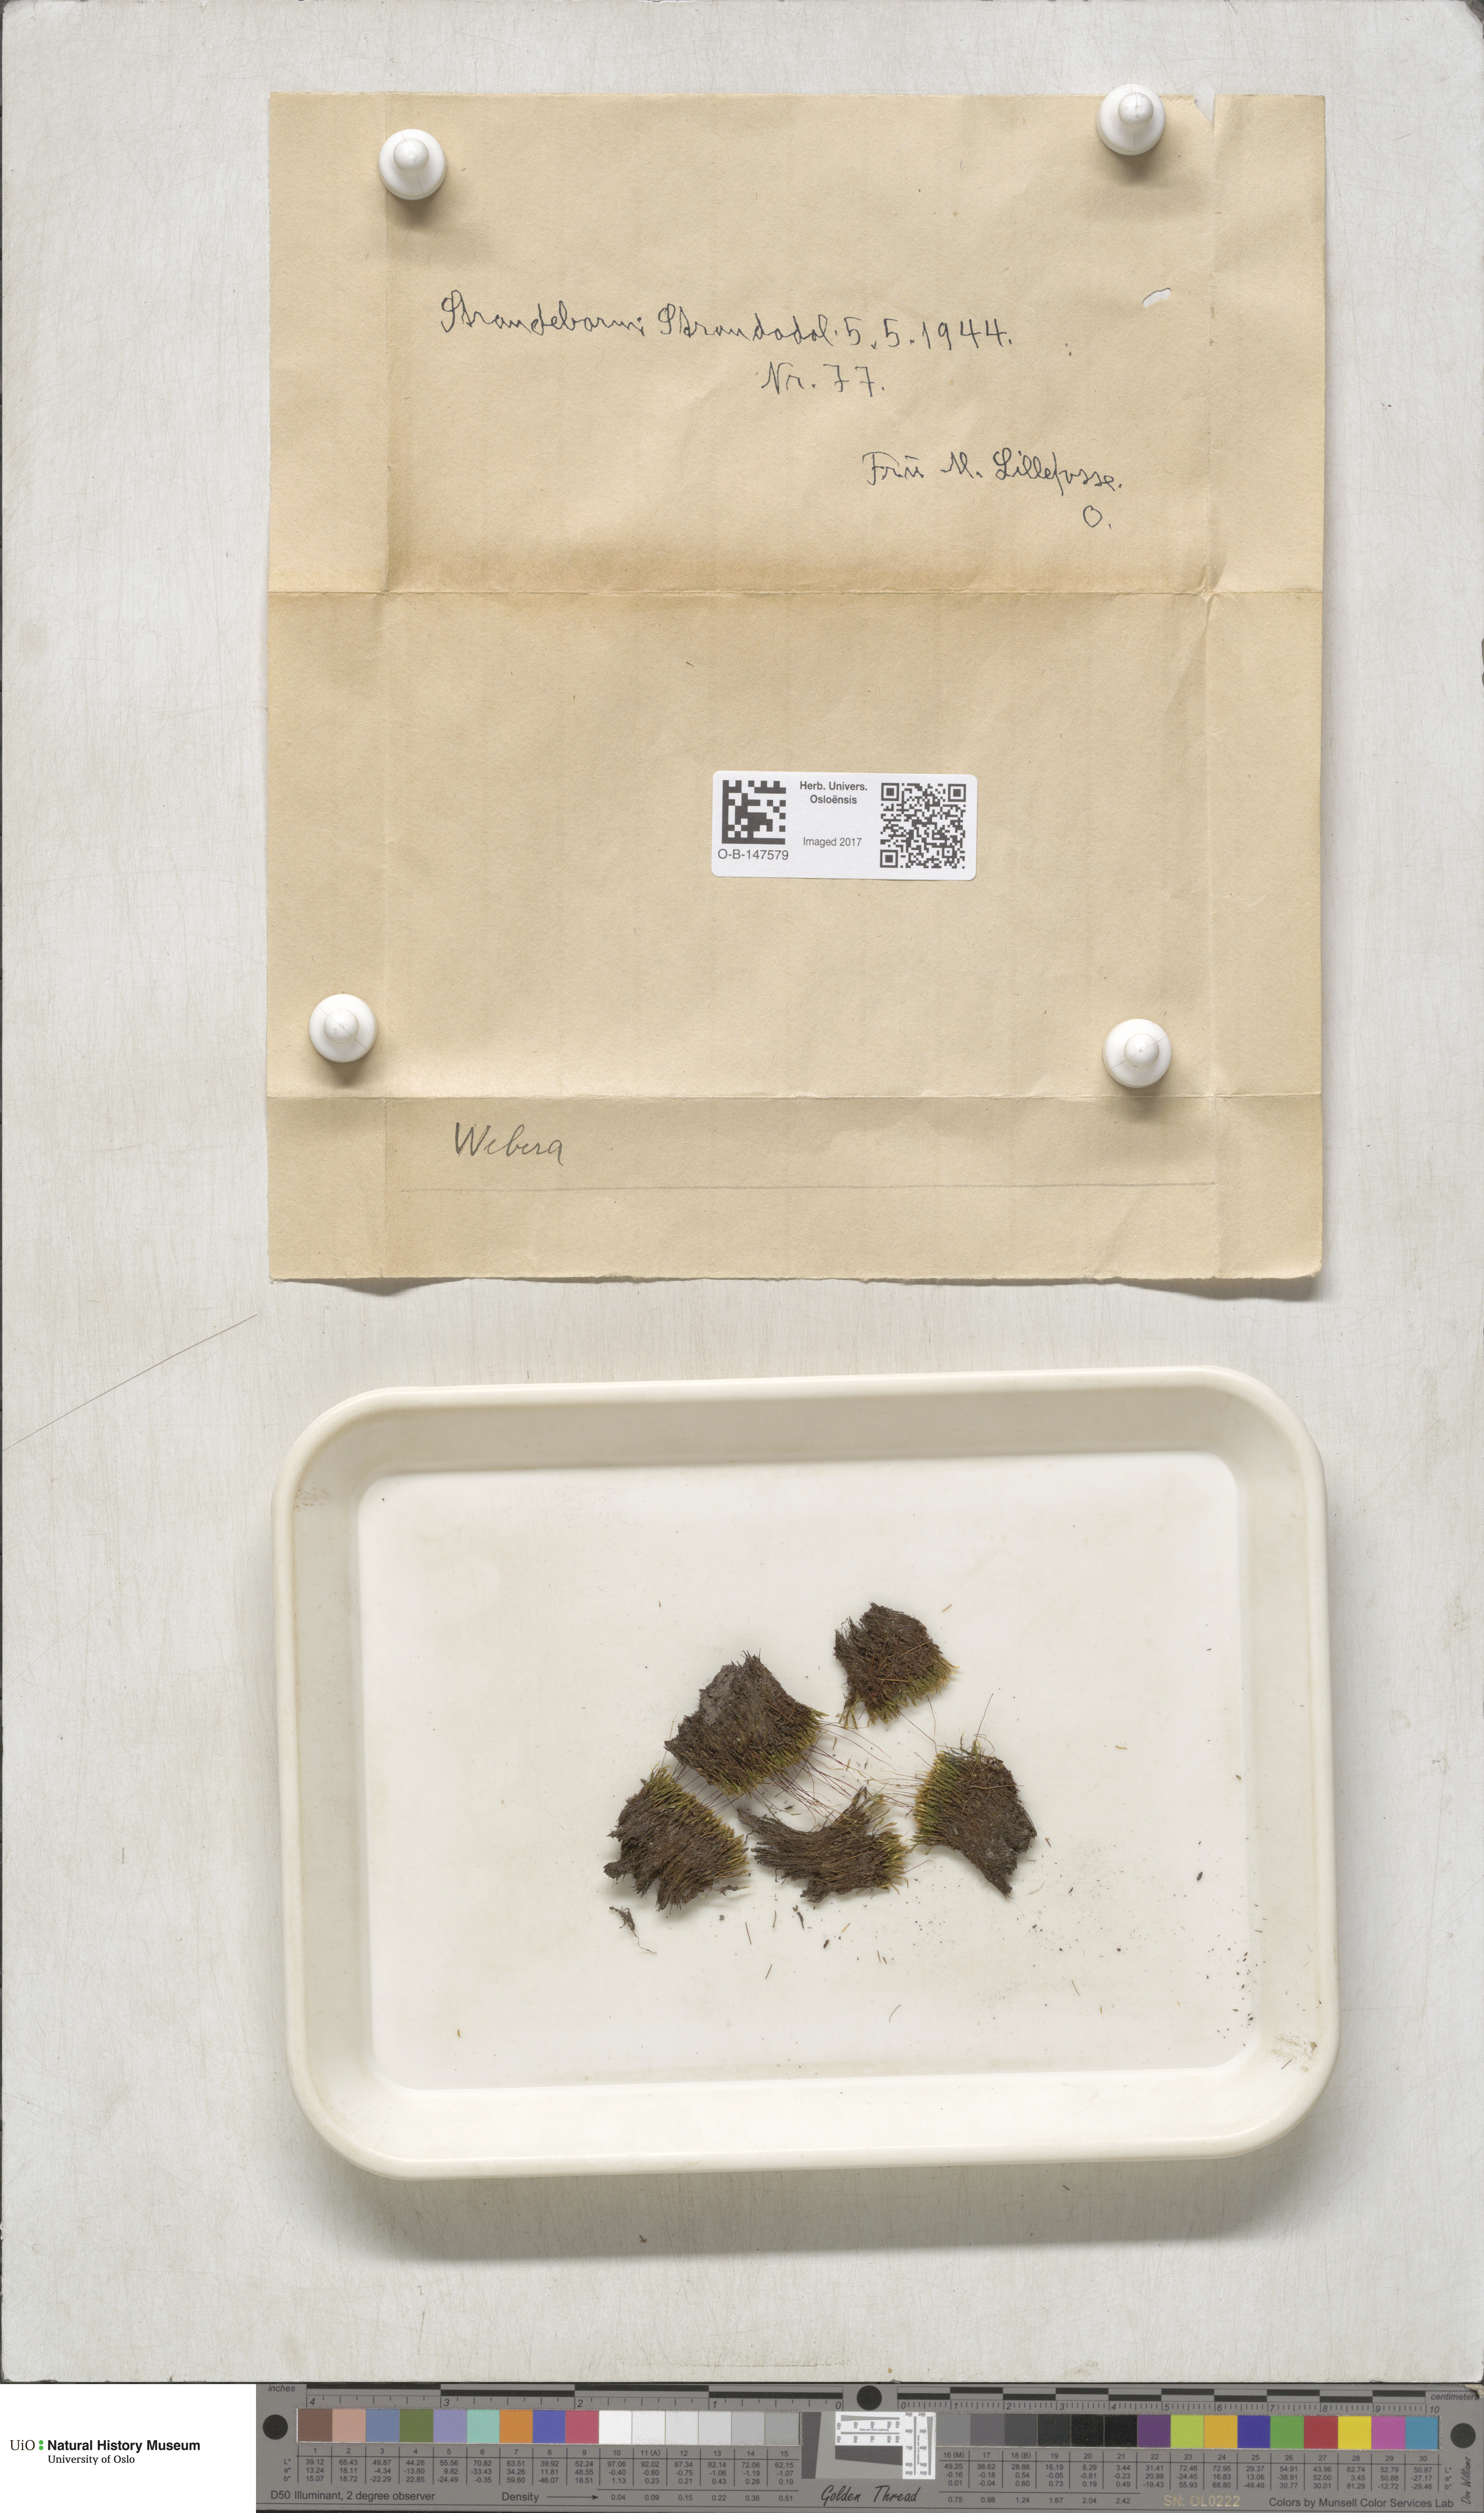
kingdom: Plantae
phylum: Bryophyta
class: Bryopsida
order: Bryales
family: Mniaceae
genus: Pohlia
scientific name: Pohlia
